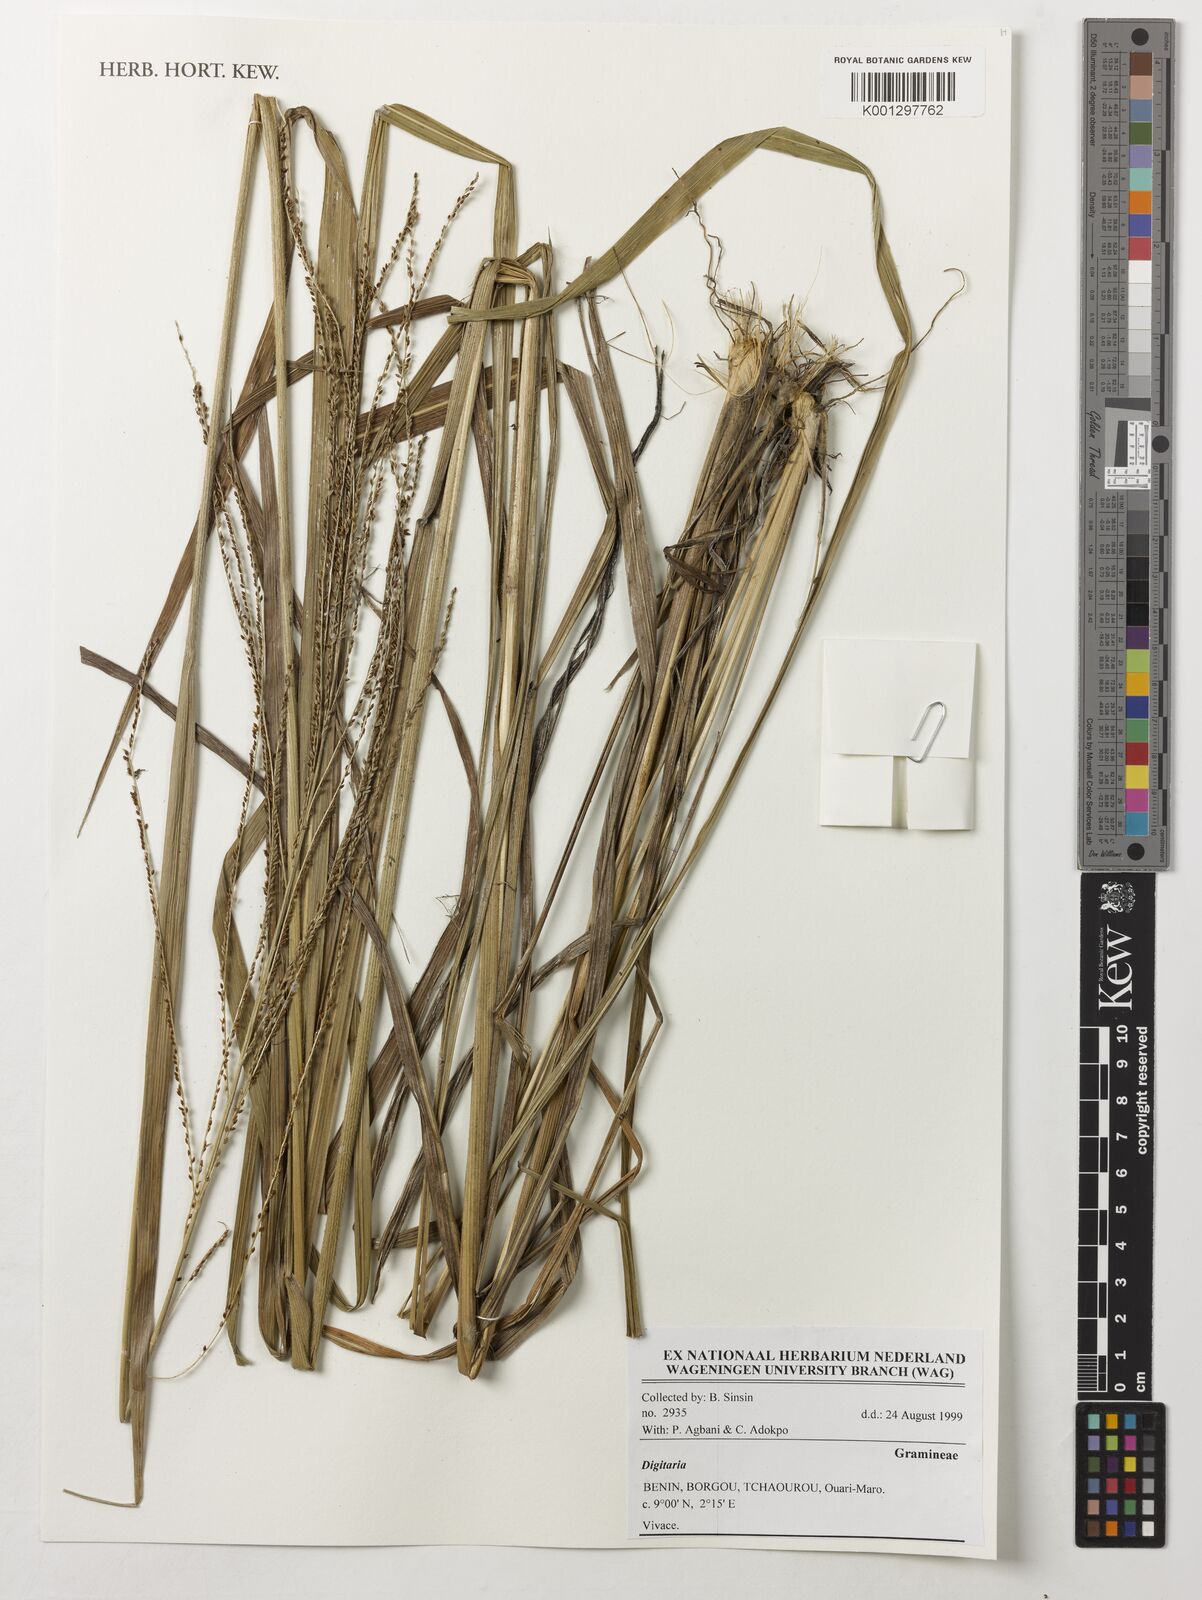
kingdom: Plantae
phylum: Tracheophyta
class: Liliopsida
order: Poales
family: Poaceae
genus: Digitaria
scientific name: Digitaria spec
